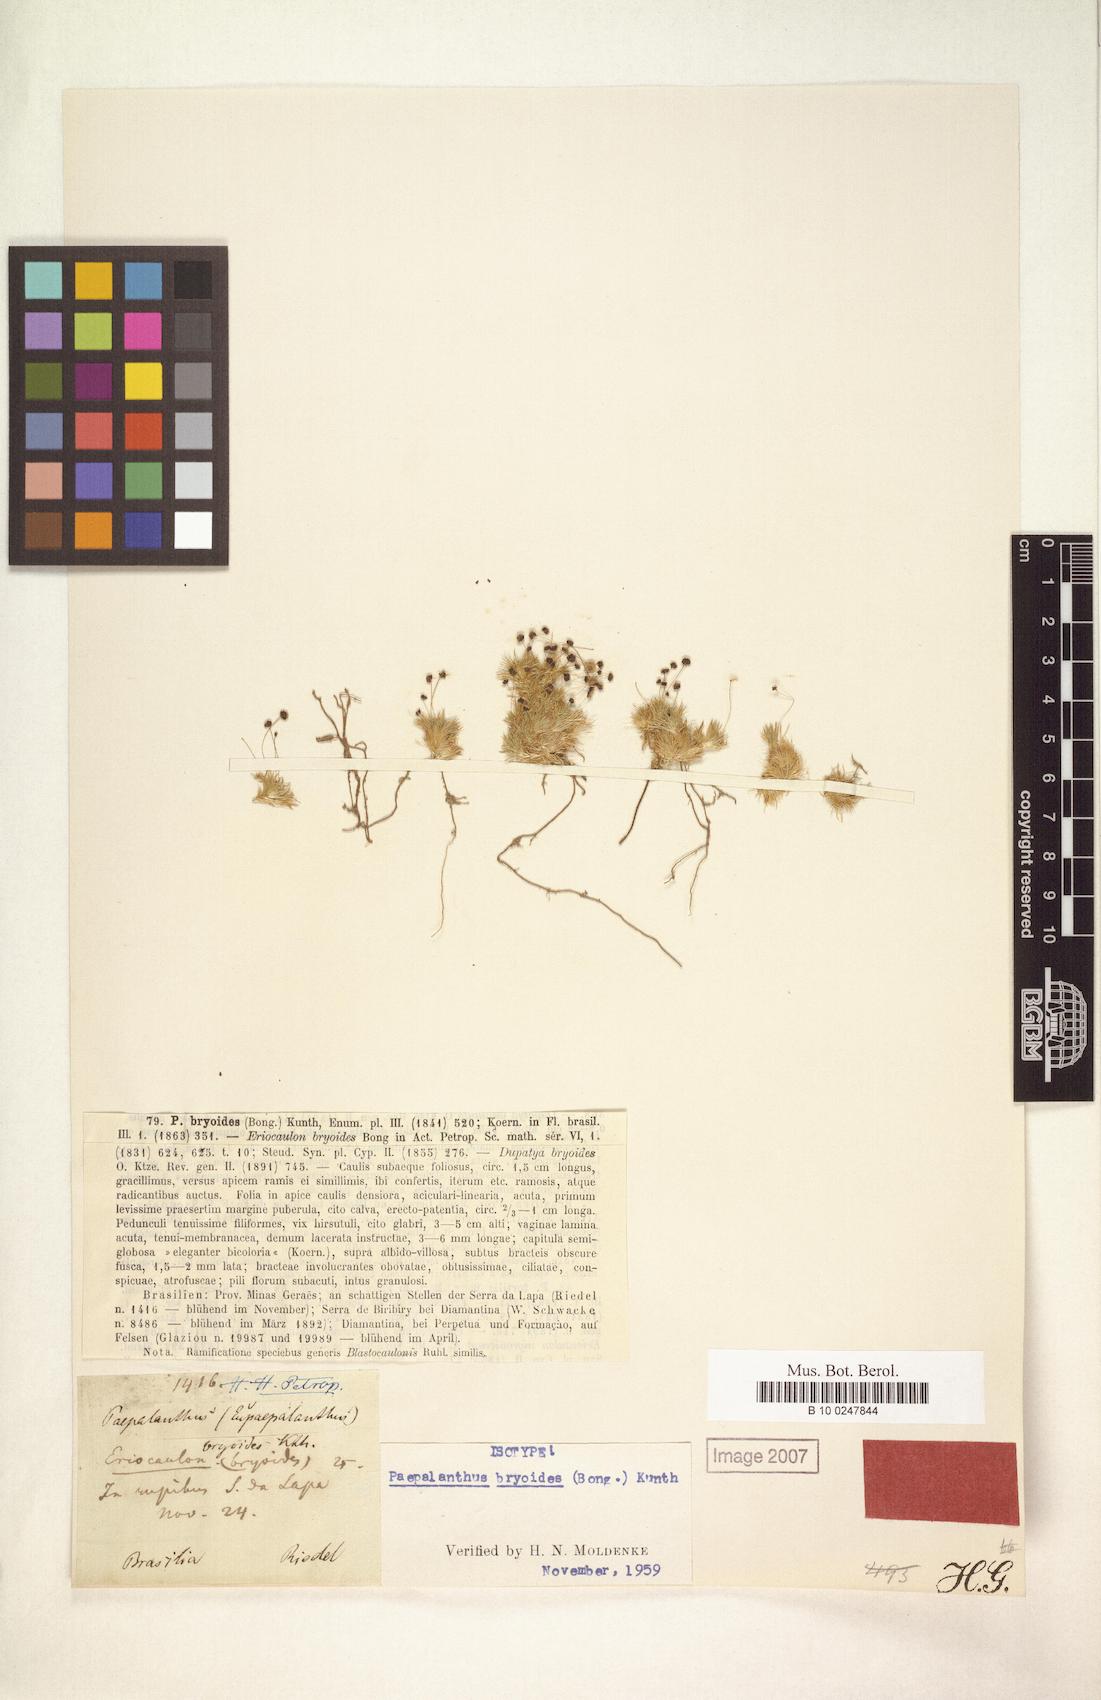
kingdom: Plantae
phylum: Tracheophyta
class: Liliopsida
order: Poales
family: Eriocaulaceae
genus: Paepalanthus
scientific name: Paepalanthus bryoides
